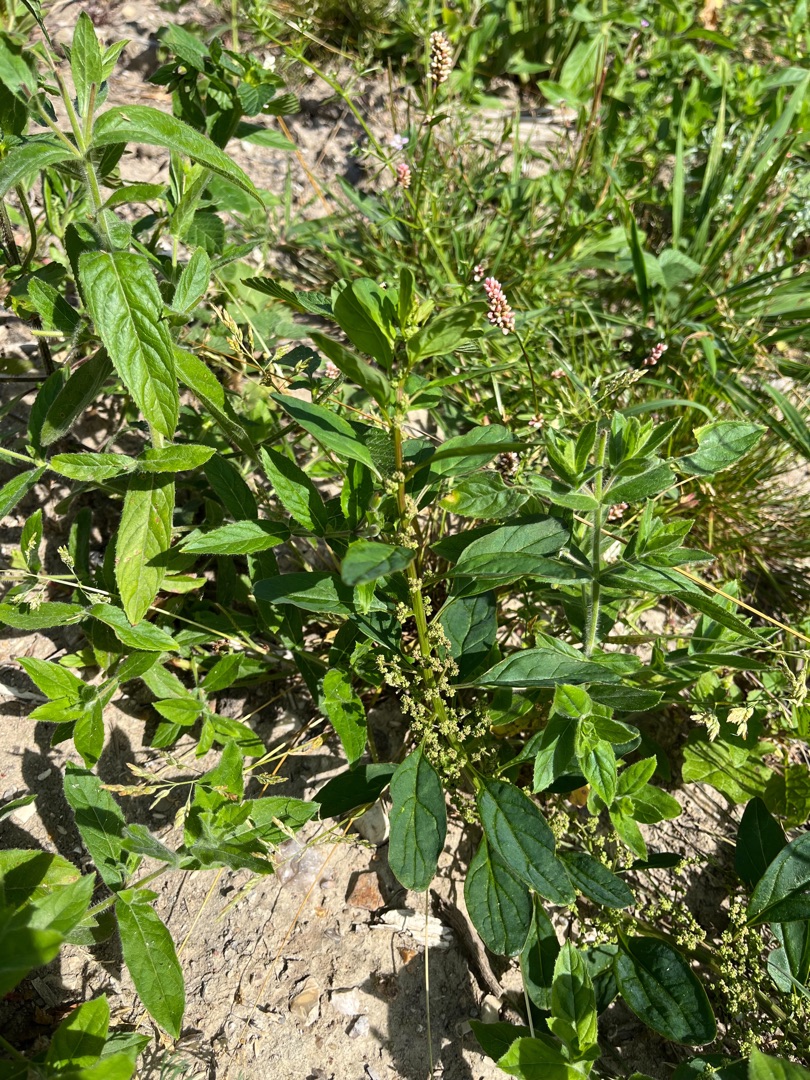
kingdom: Plantae
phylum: Tracheophyta
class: Magnoliopsida
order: Caryophyllales
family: Amaranthaceae
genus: Lipandra
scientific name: Lipandra polysperma
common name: Mangefrøet gåsefod
